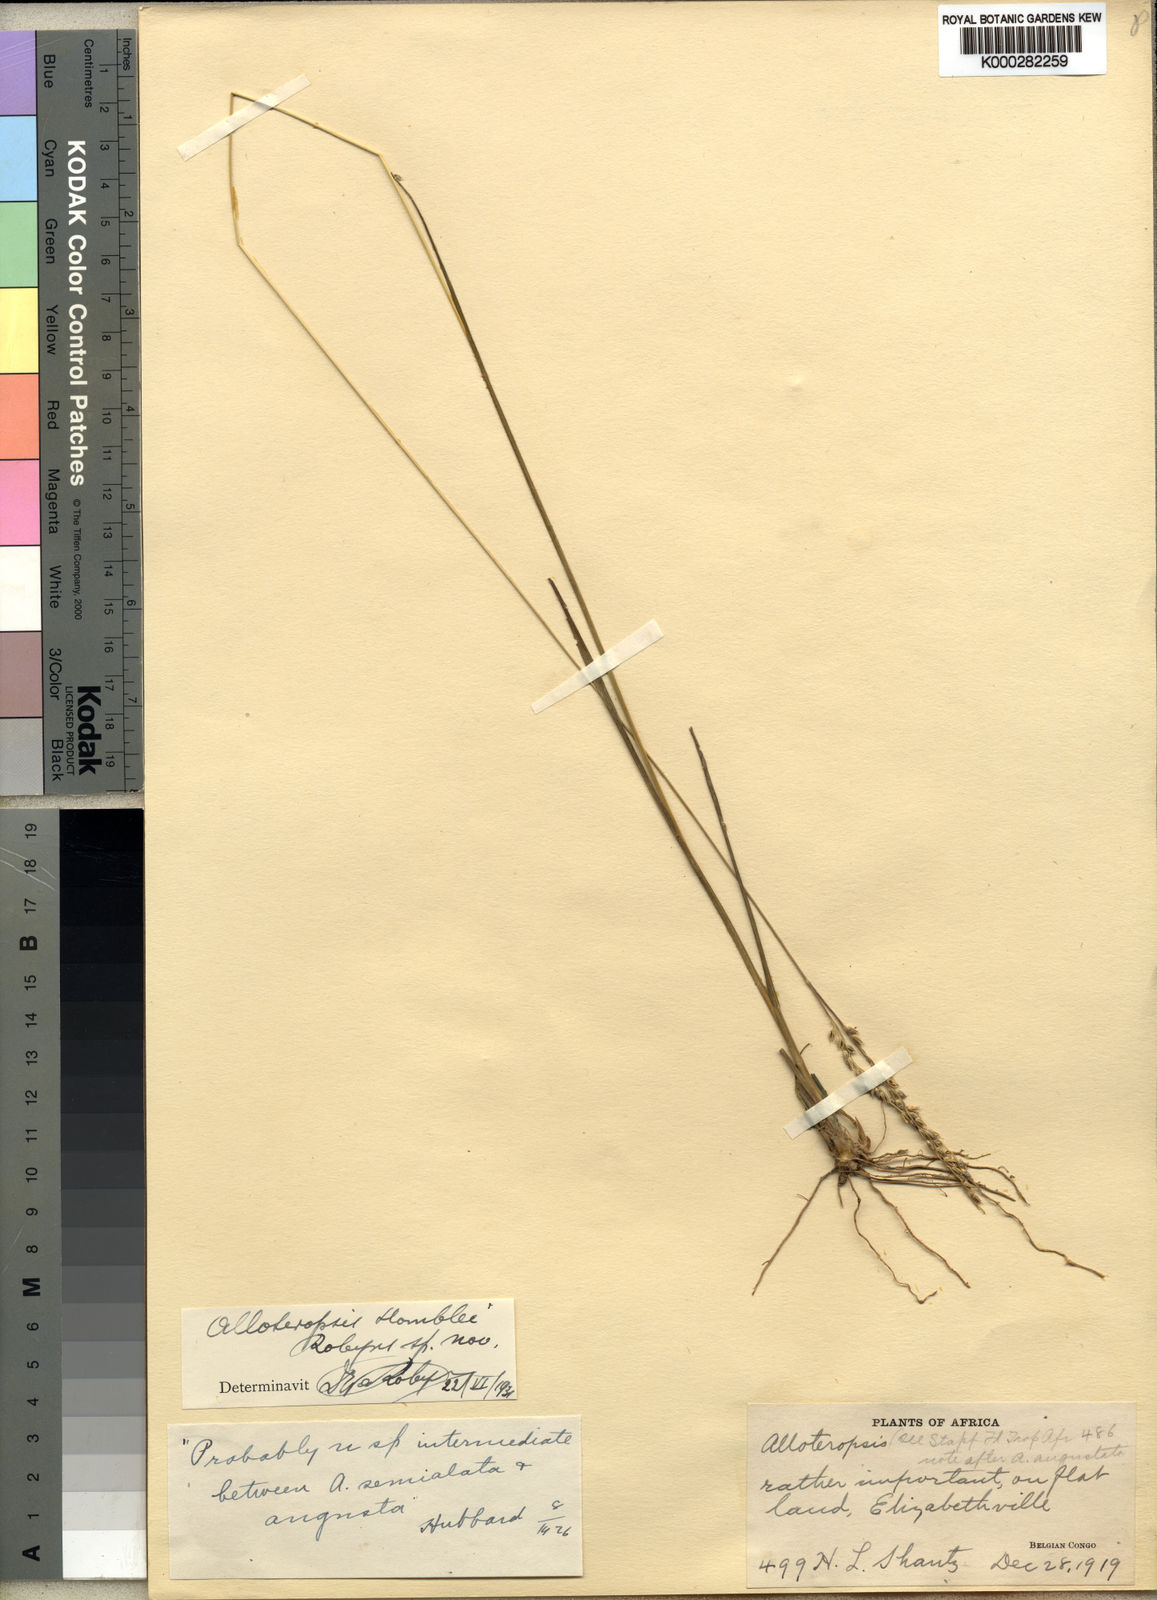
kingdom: Plantae
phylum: Tracheophyta
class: Liliopsida
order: Poales
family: Poaceae
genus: Alloteropsis
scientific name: Alloteropsis semialata
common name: Cockatoo grass
